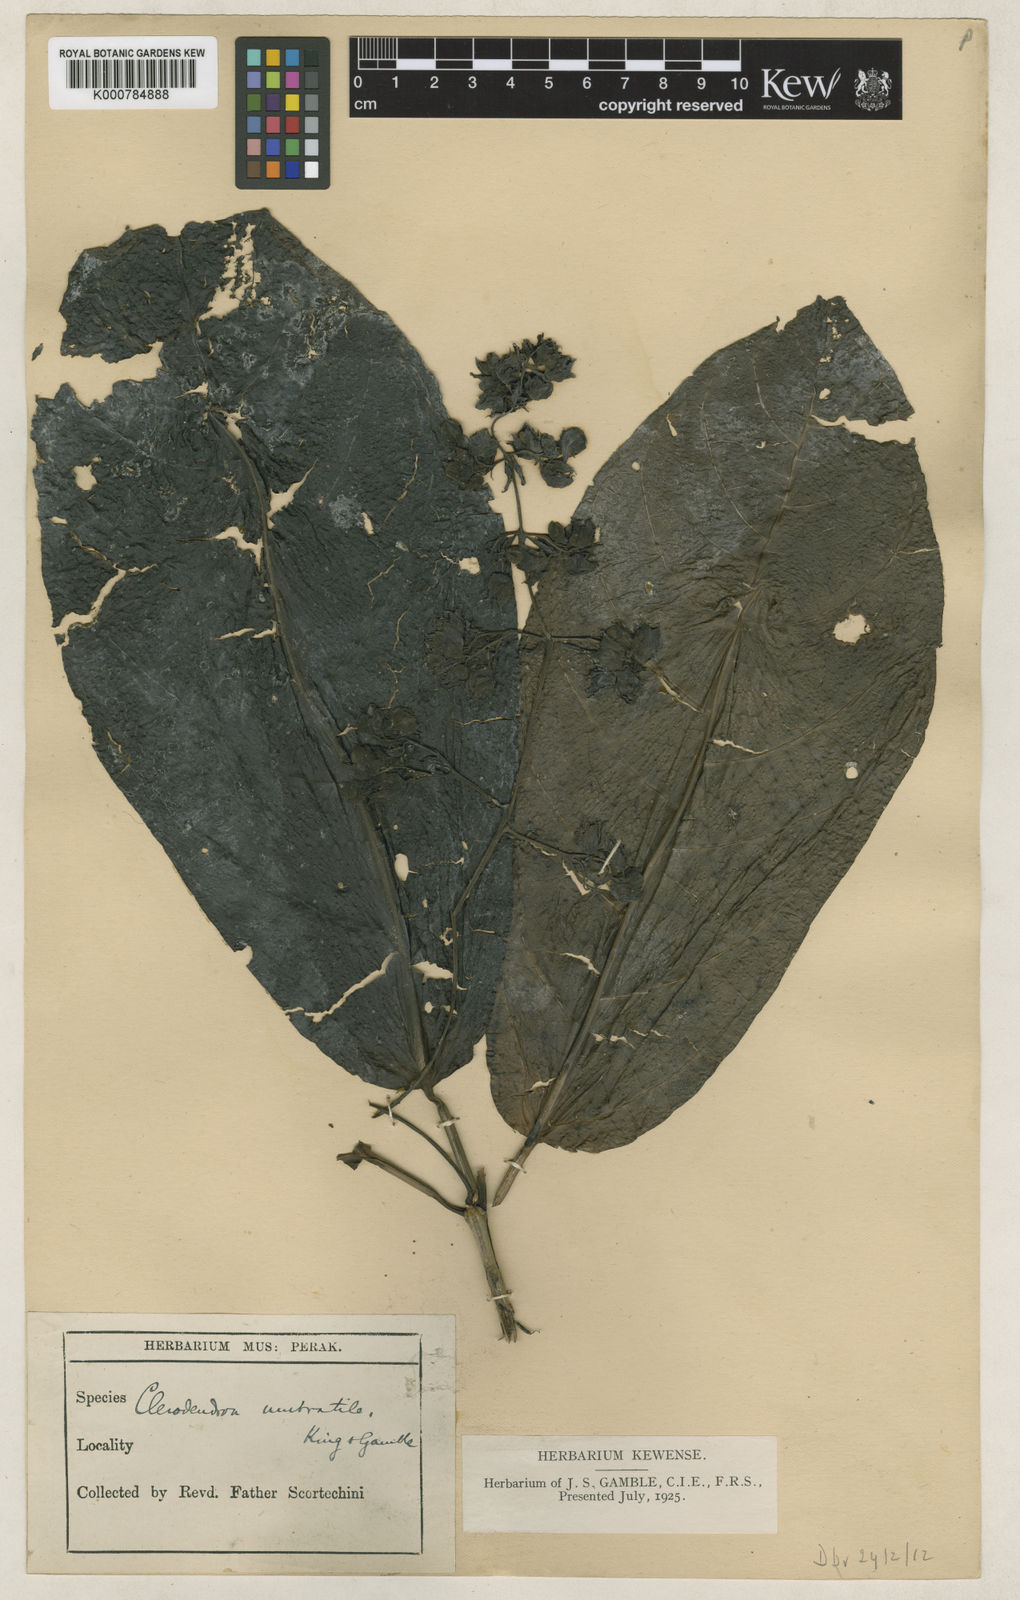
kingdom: Plantae
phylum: Tracheophyta
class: Magnoliopsida
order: Lamiales
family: Lamiaceae
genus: Clerodendrum
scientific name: Clerodendrum umbratile
